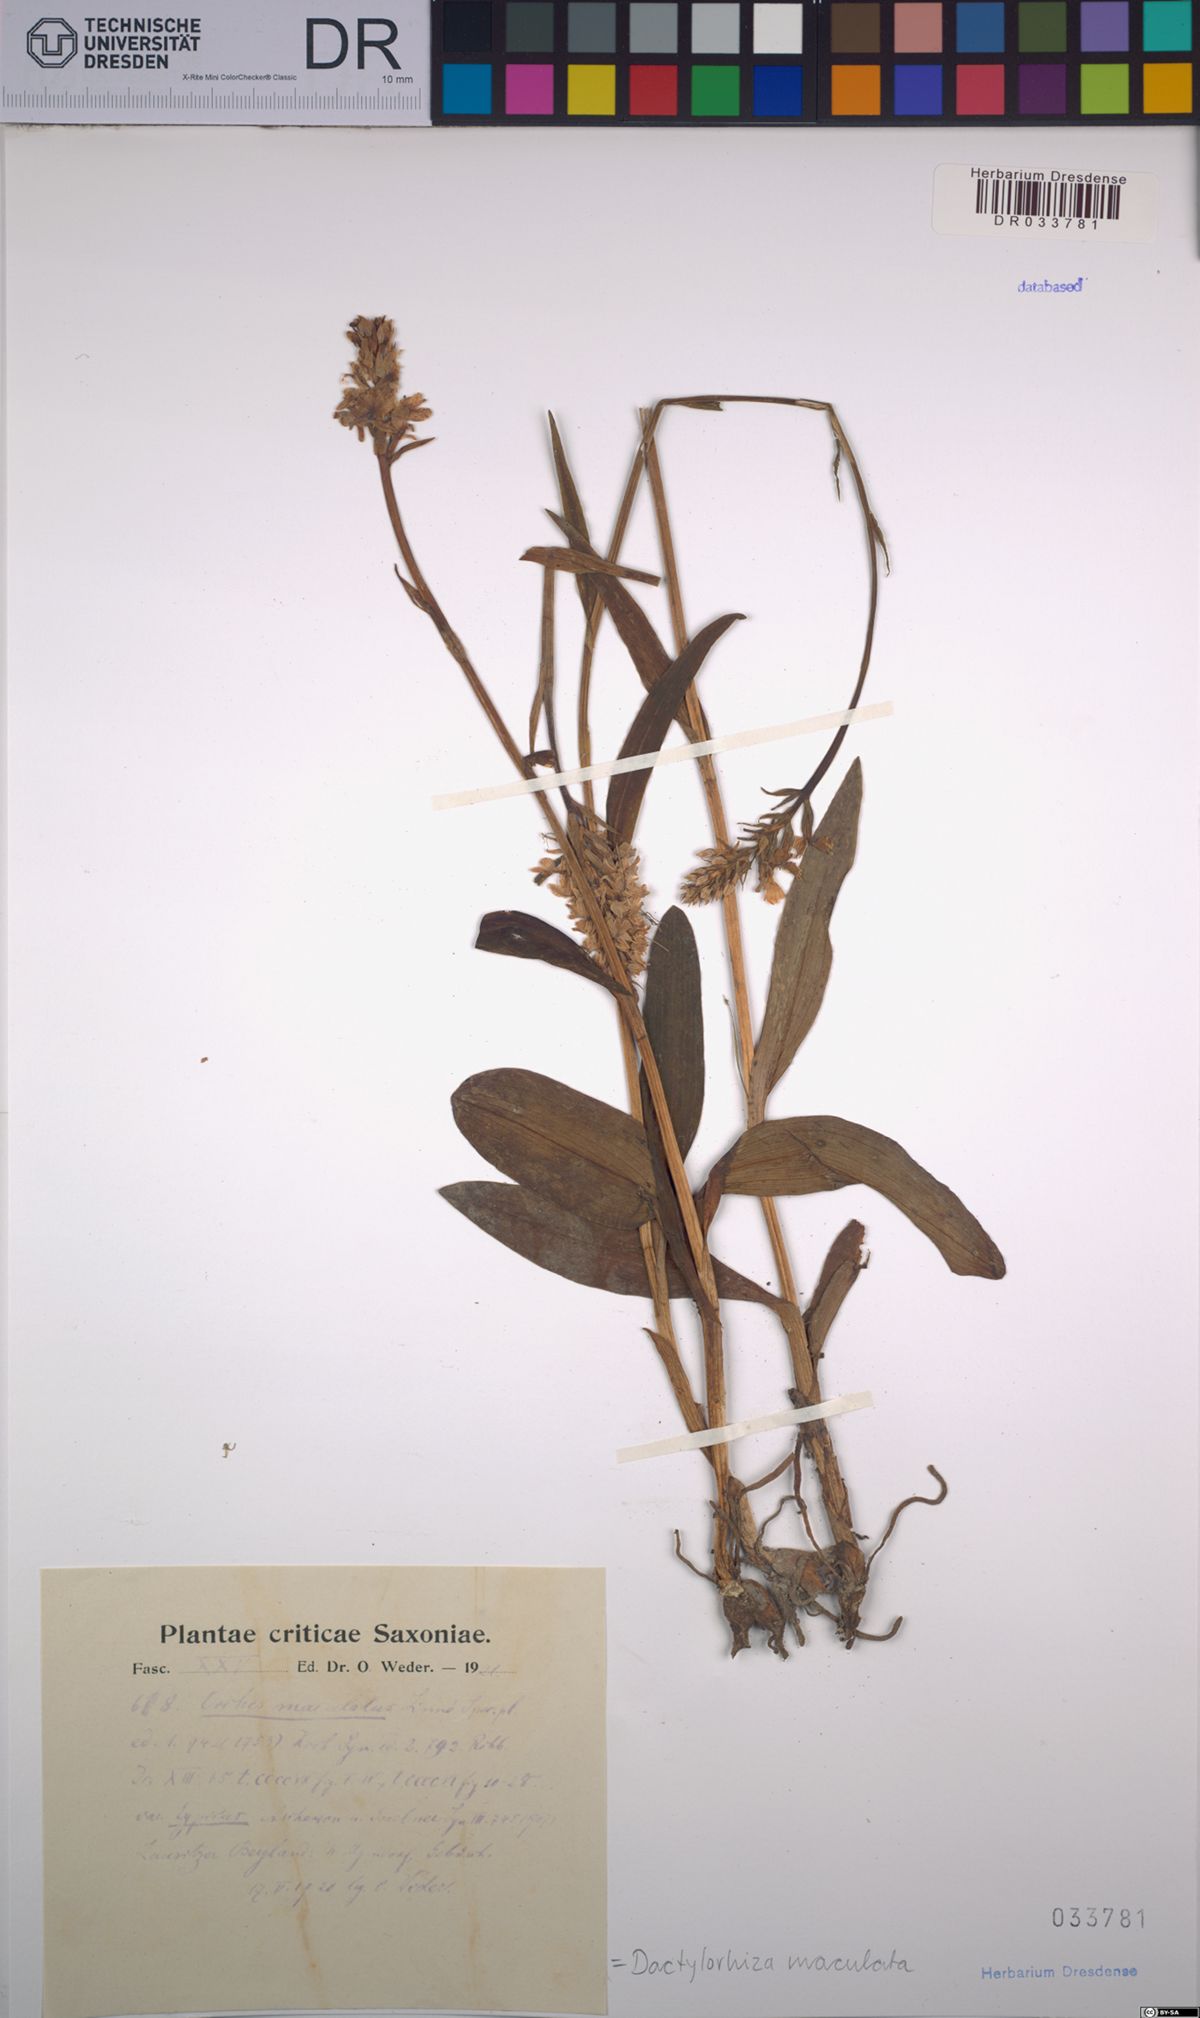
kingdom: Plantae
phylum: Tracheophyta
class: Liliopsida
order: Asparagales
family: Orchidaceae
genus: Dactylorhiza
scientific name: Dactylorhiza maculata
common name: Heath spotted-orchid
